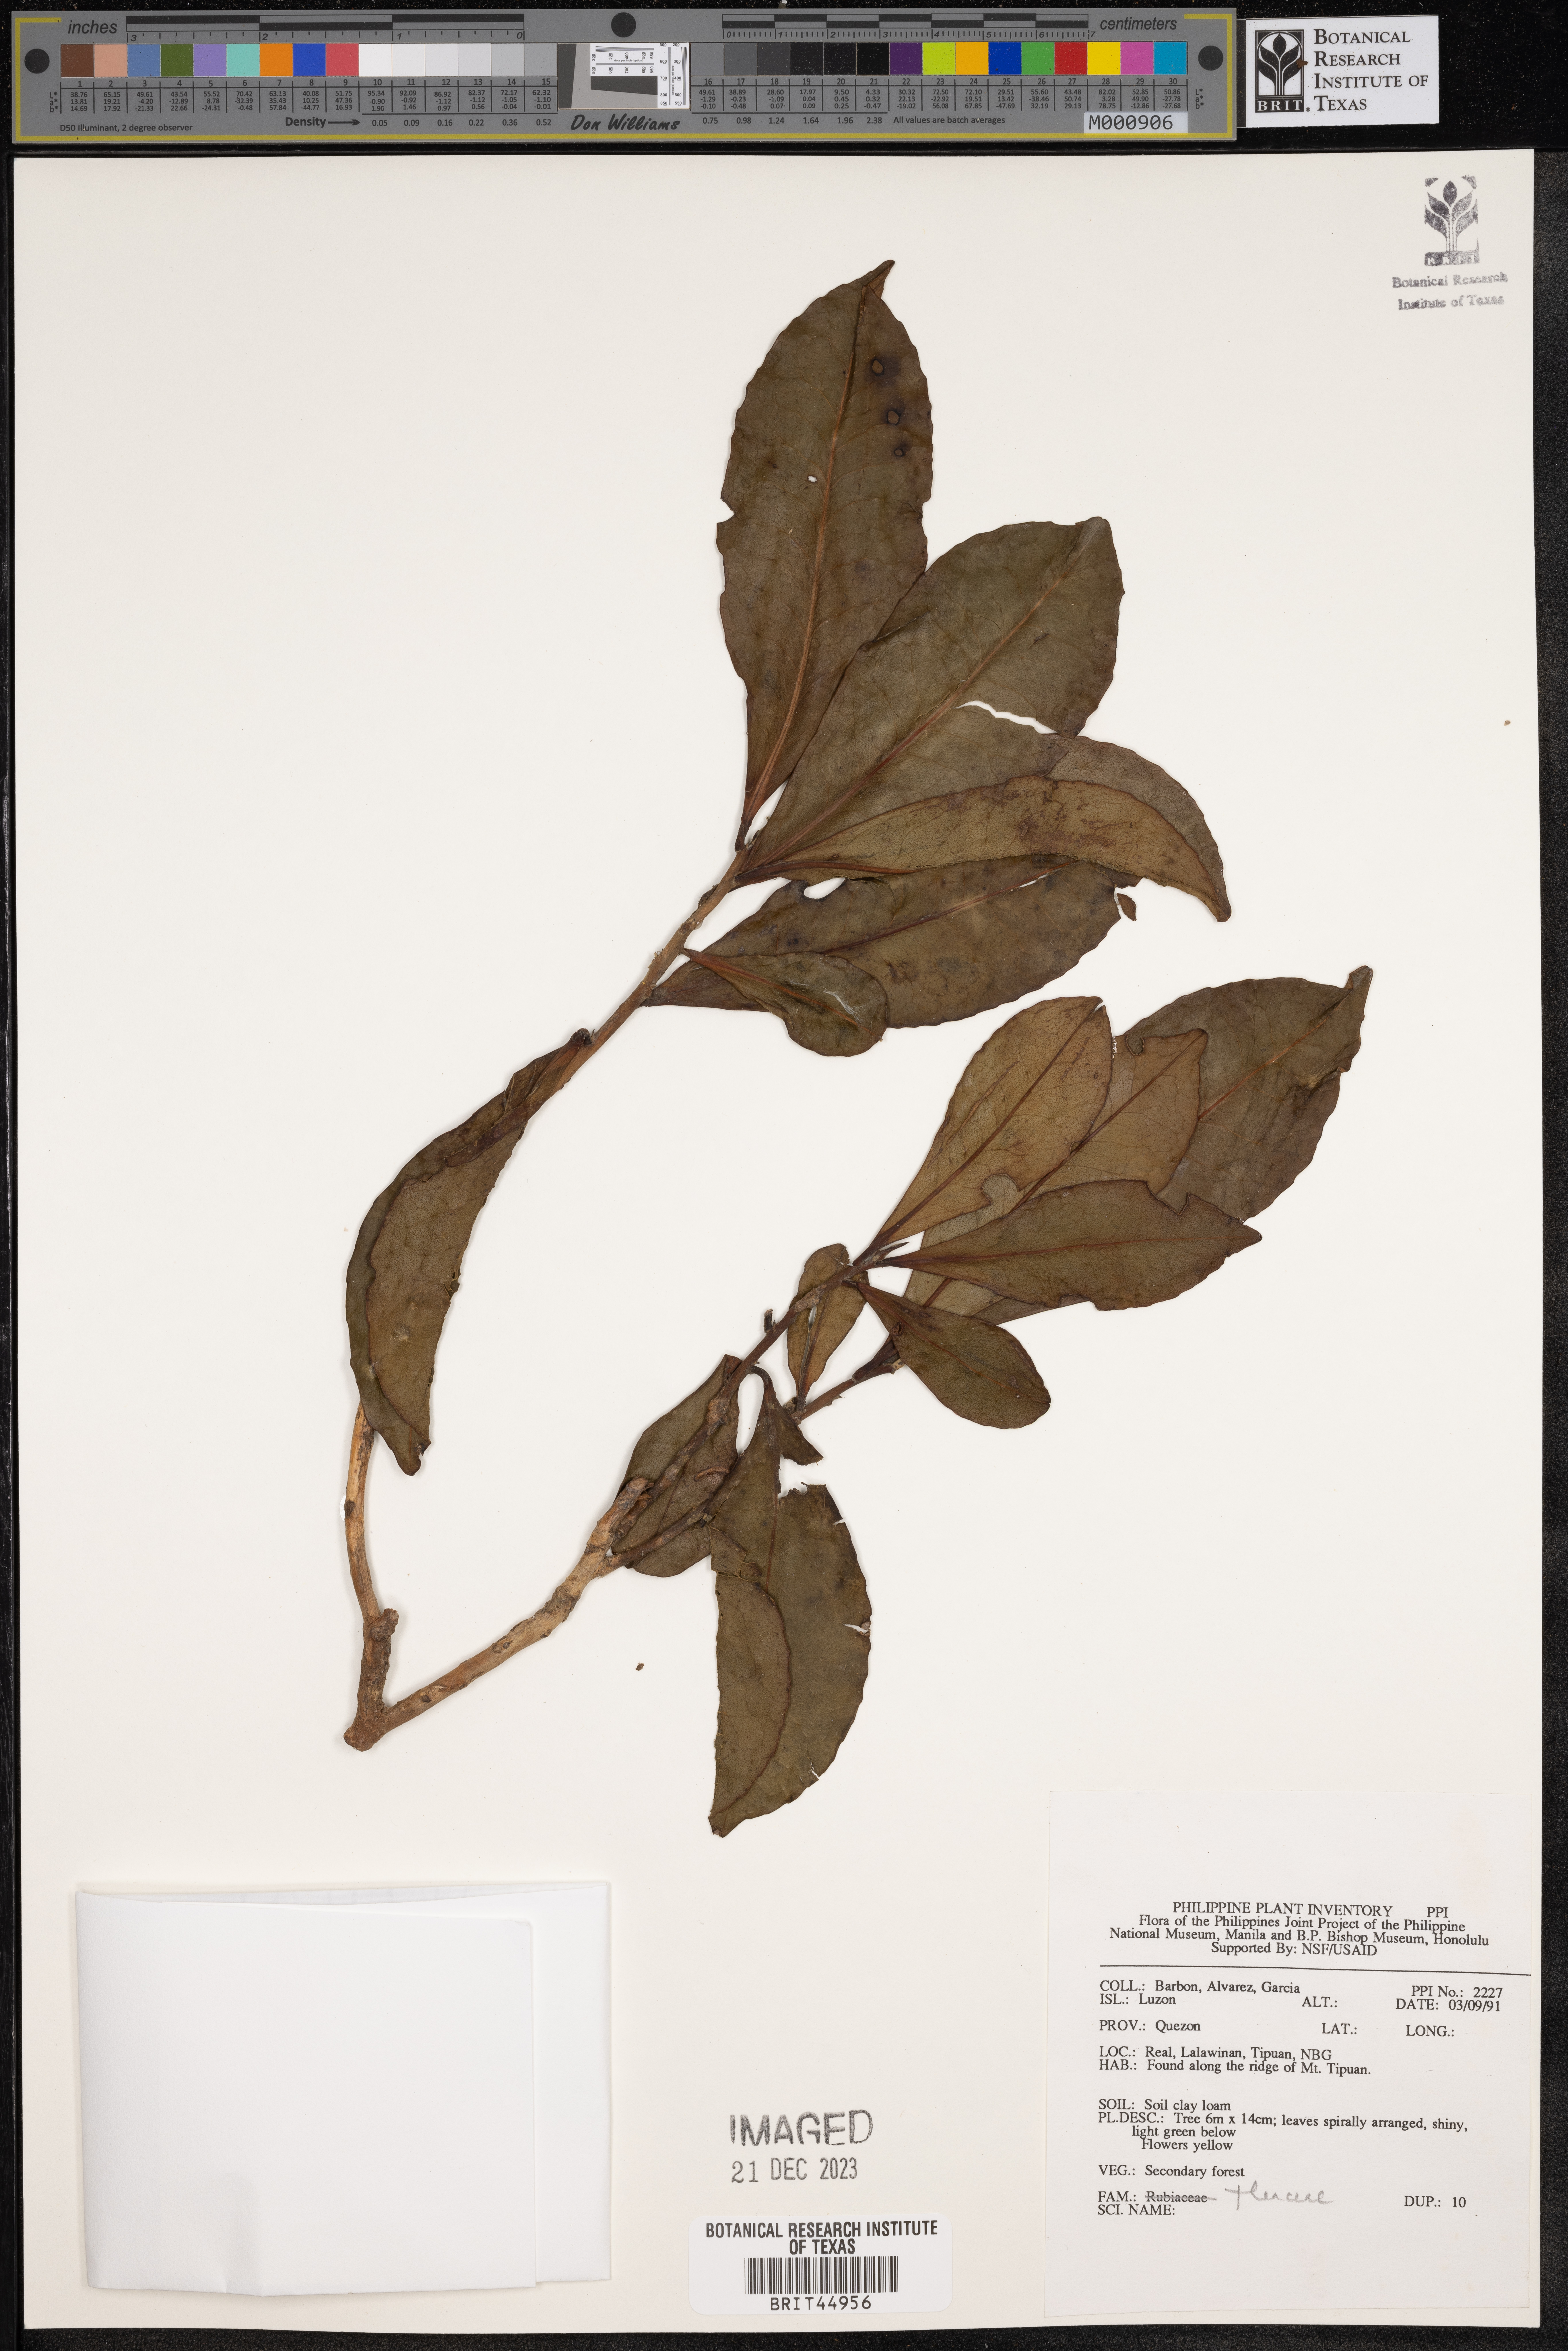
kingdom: Plantae
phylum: Tracheophyta
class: Magnoliopsida
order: Ericales
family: Theaceae
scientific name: Theaceae
